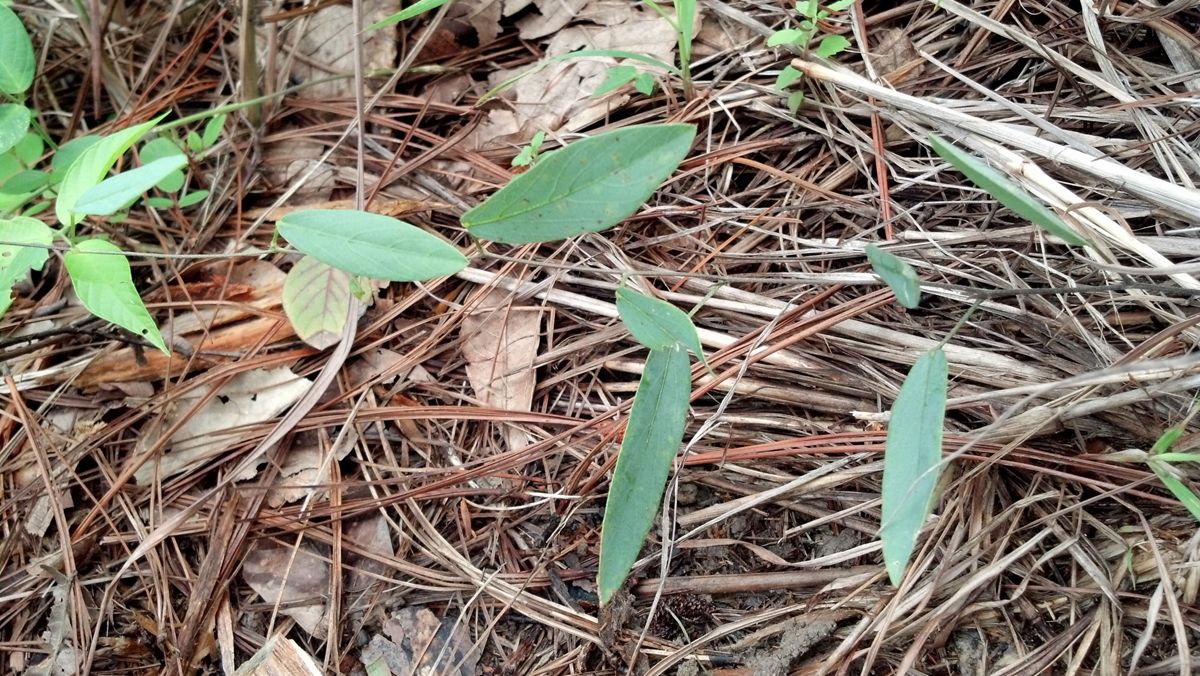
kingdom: Plantae
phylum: Tracheophyta
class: Magnoliopsida
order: Fabales
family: Fabaceae
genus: Cologania
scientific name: Cologania procumbens
